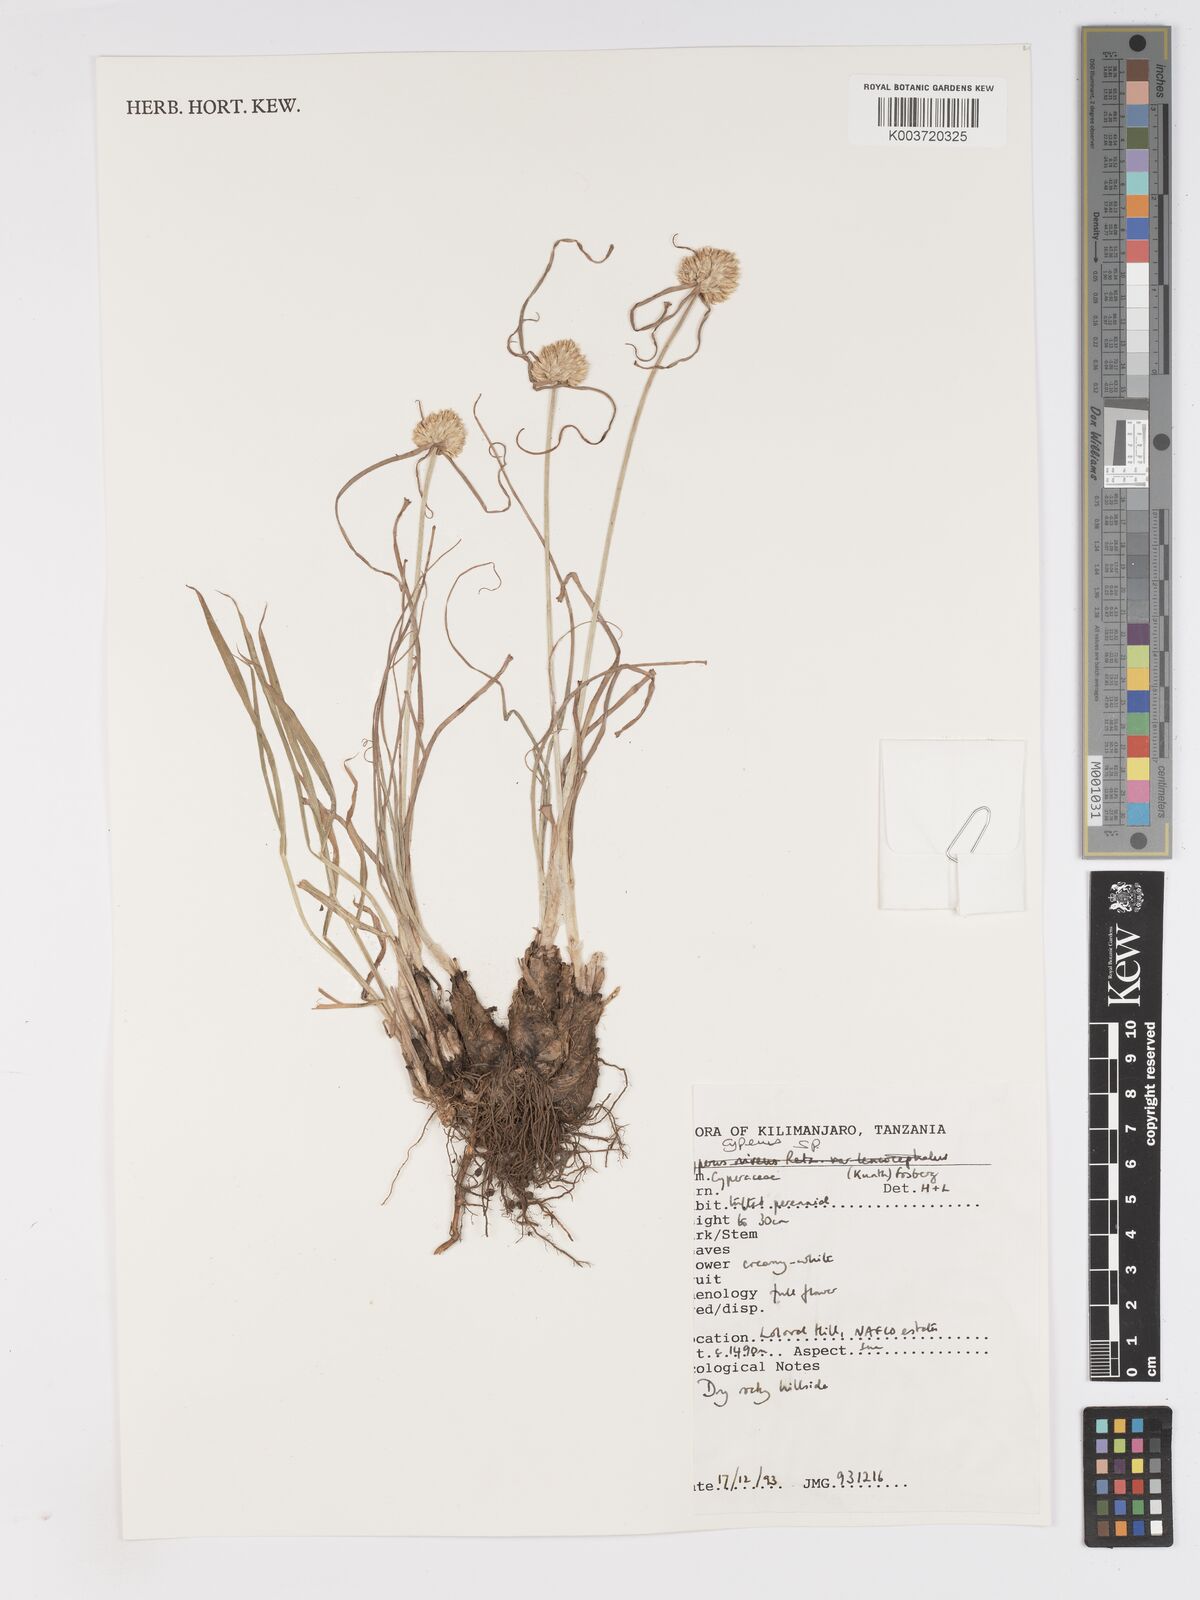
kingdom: Plantae
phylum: Tracheophyta
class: Liliopsida
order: Poales
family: Cyperaceae
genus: Cyperus
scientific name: Cyperus
